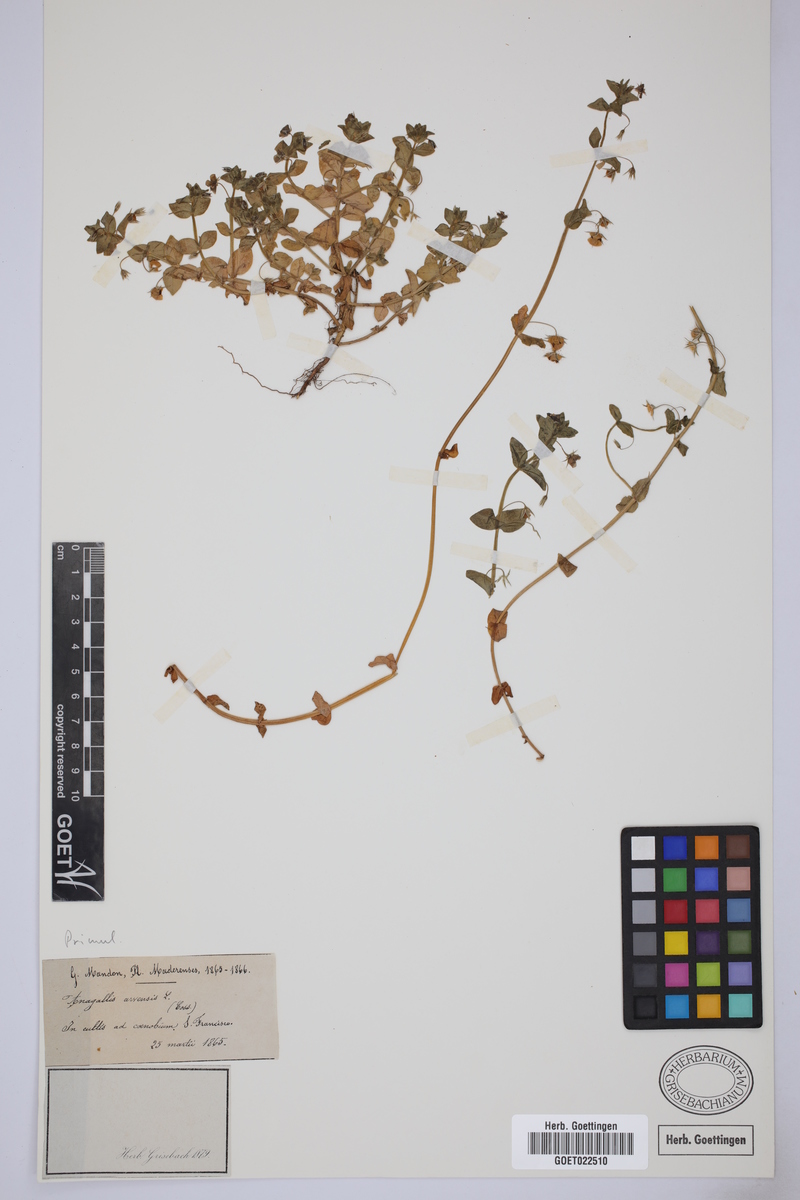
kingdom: Plantae
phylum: Tracheophyta
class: Magnoliopsida
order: Ericales
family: Primulaceae
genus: Lysimachia
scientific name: Lysimachia arvensis
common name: Scarlet pimpernel
